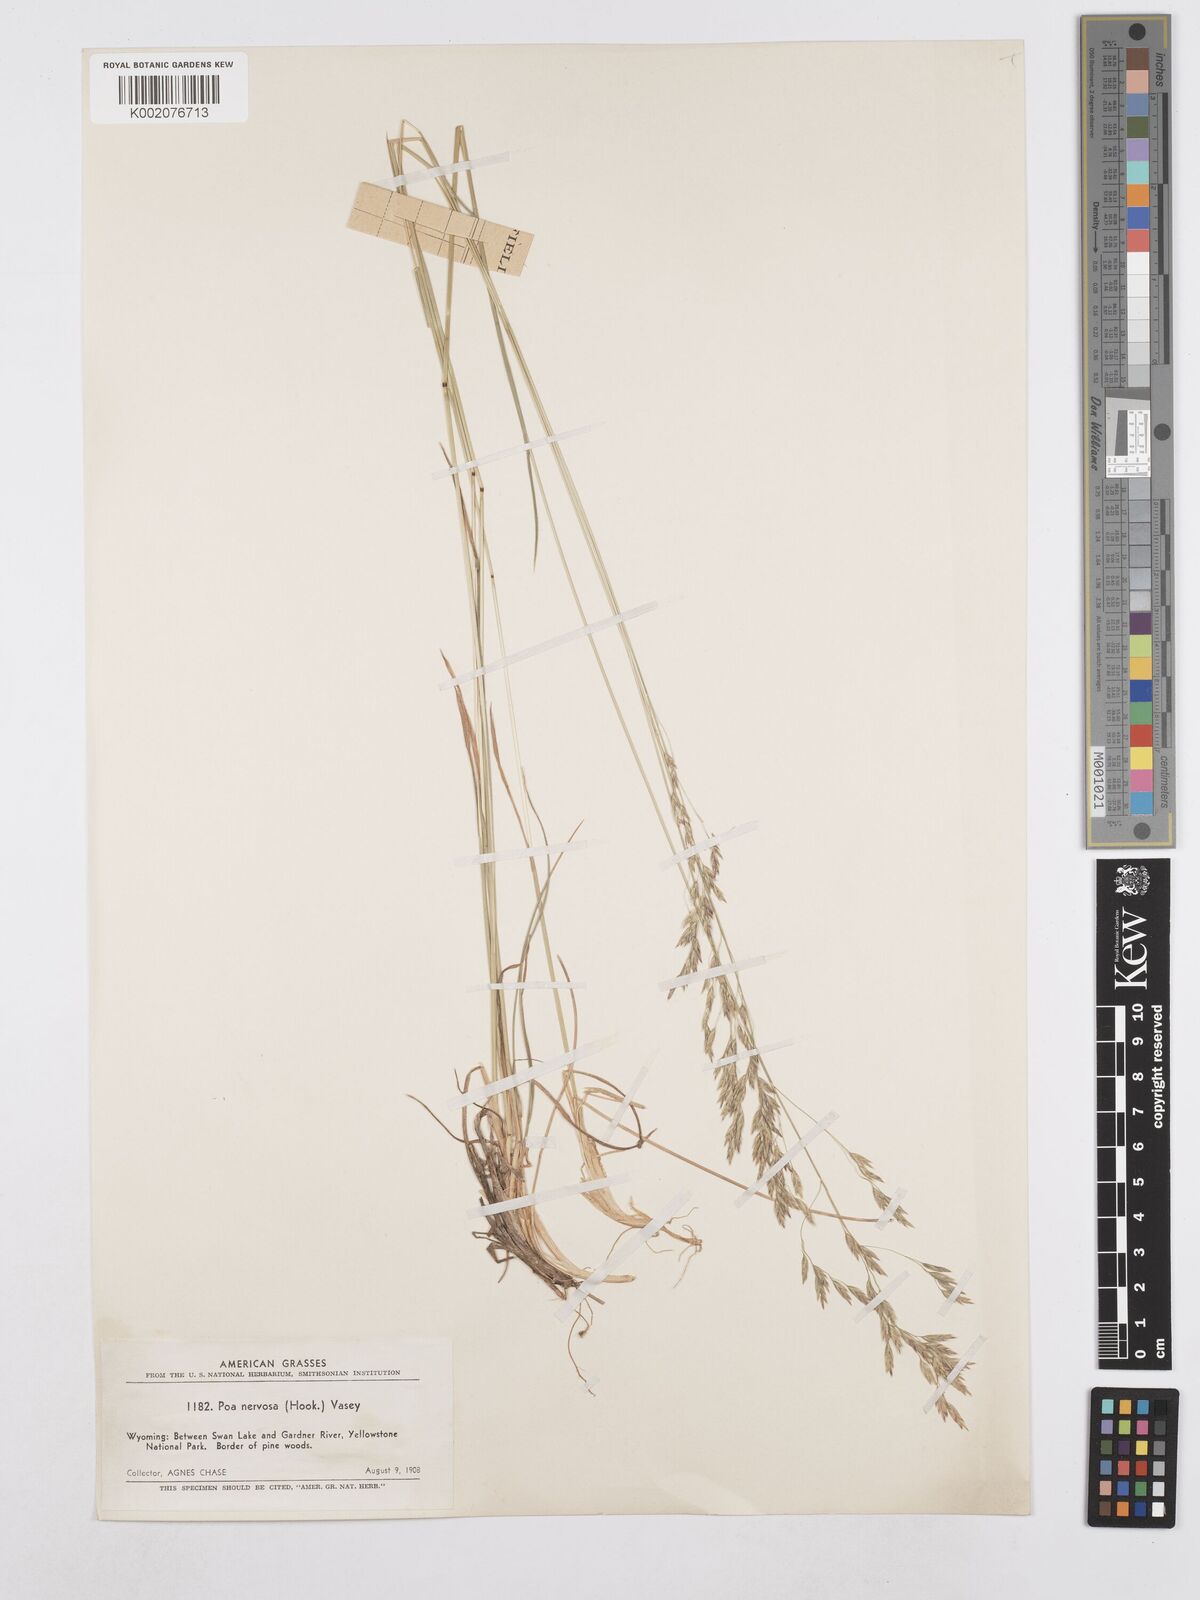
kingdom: Plantae
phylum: Tracheophyta
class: Liliopsida
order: Poales
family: Poaceae
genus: Poa
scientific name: Poa nervosa
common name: Hooker's bluegrass
